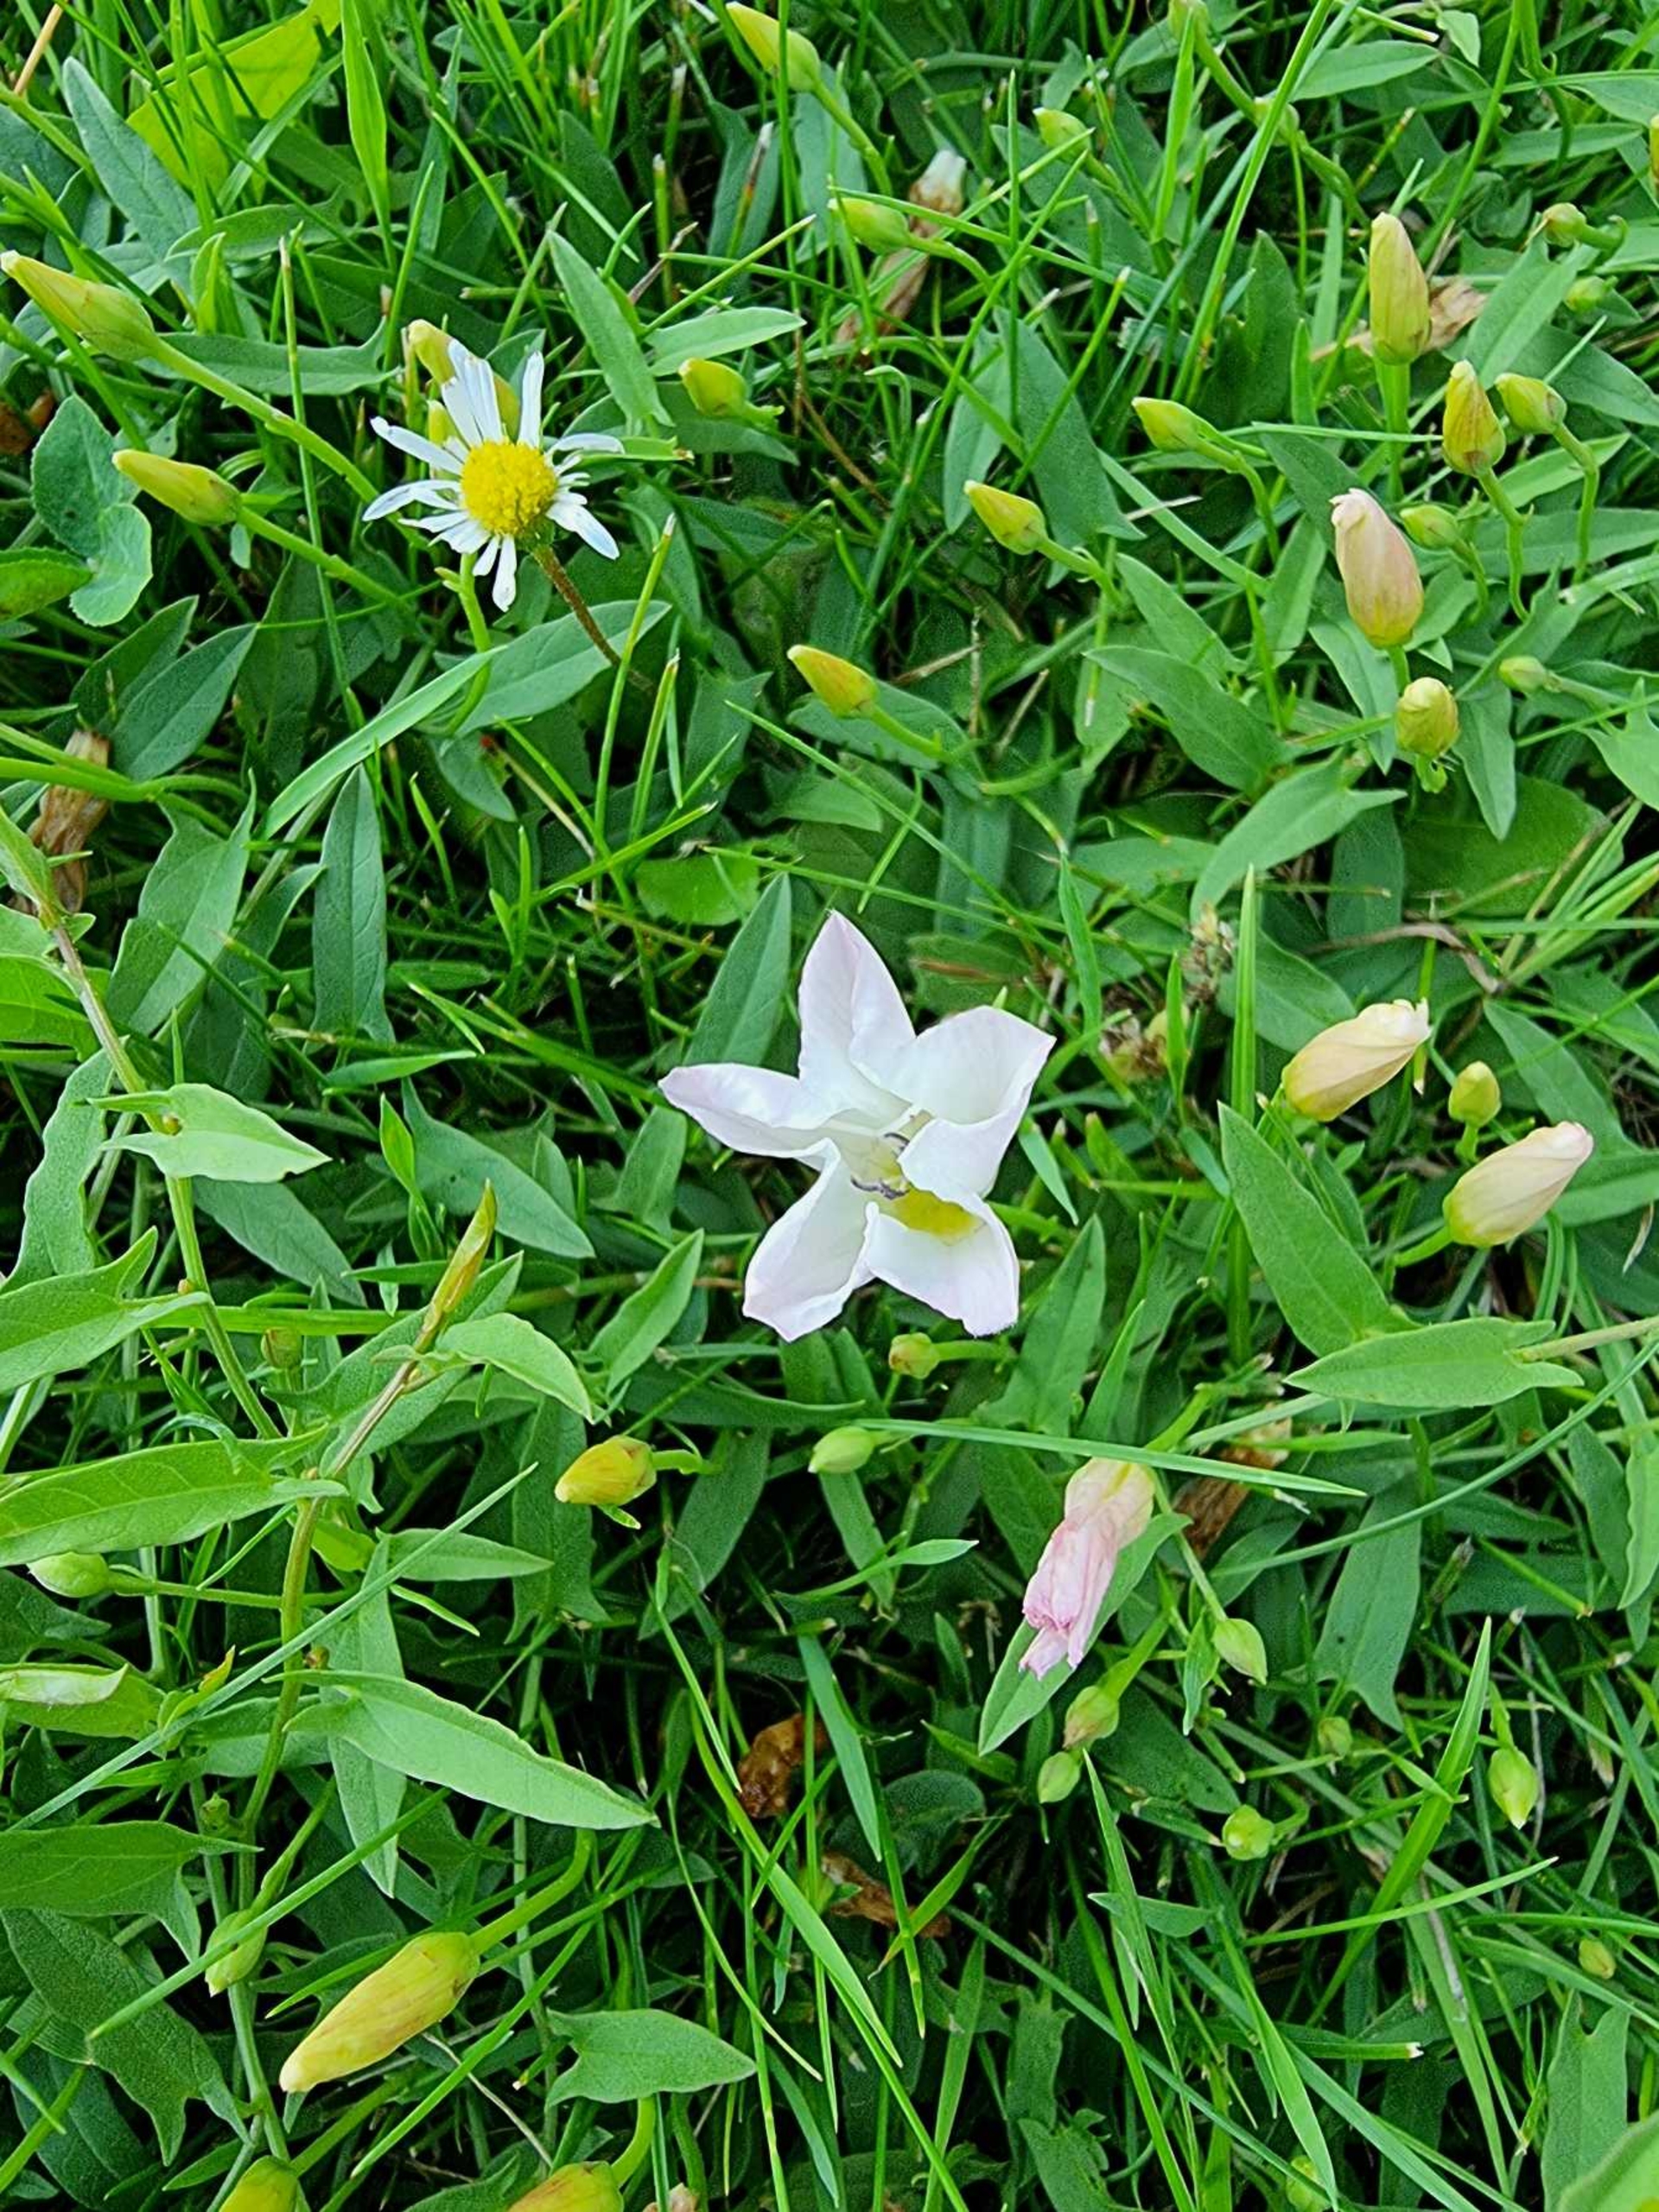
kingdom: Plantae
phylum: Tracheophyta
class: Magnoliopsida
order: Solanales
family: Convolvulaceae
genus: Convolvulus
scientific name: Convolvulus arvensis
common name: Ager-snerle
